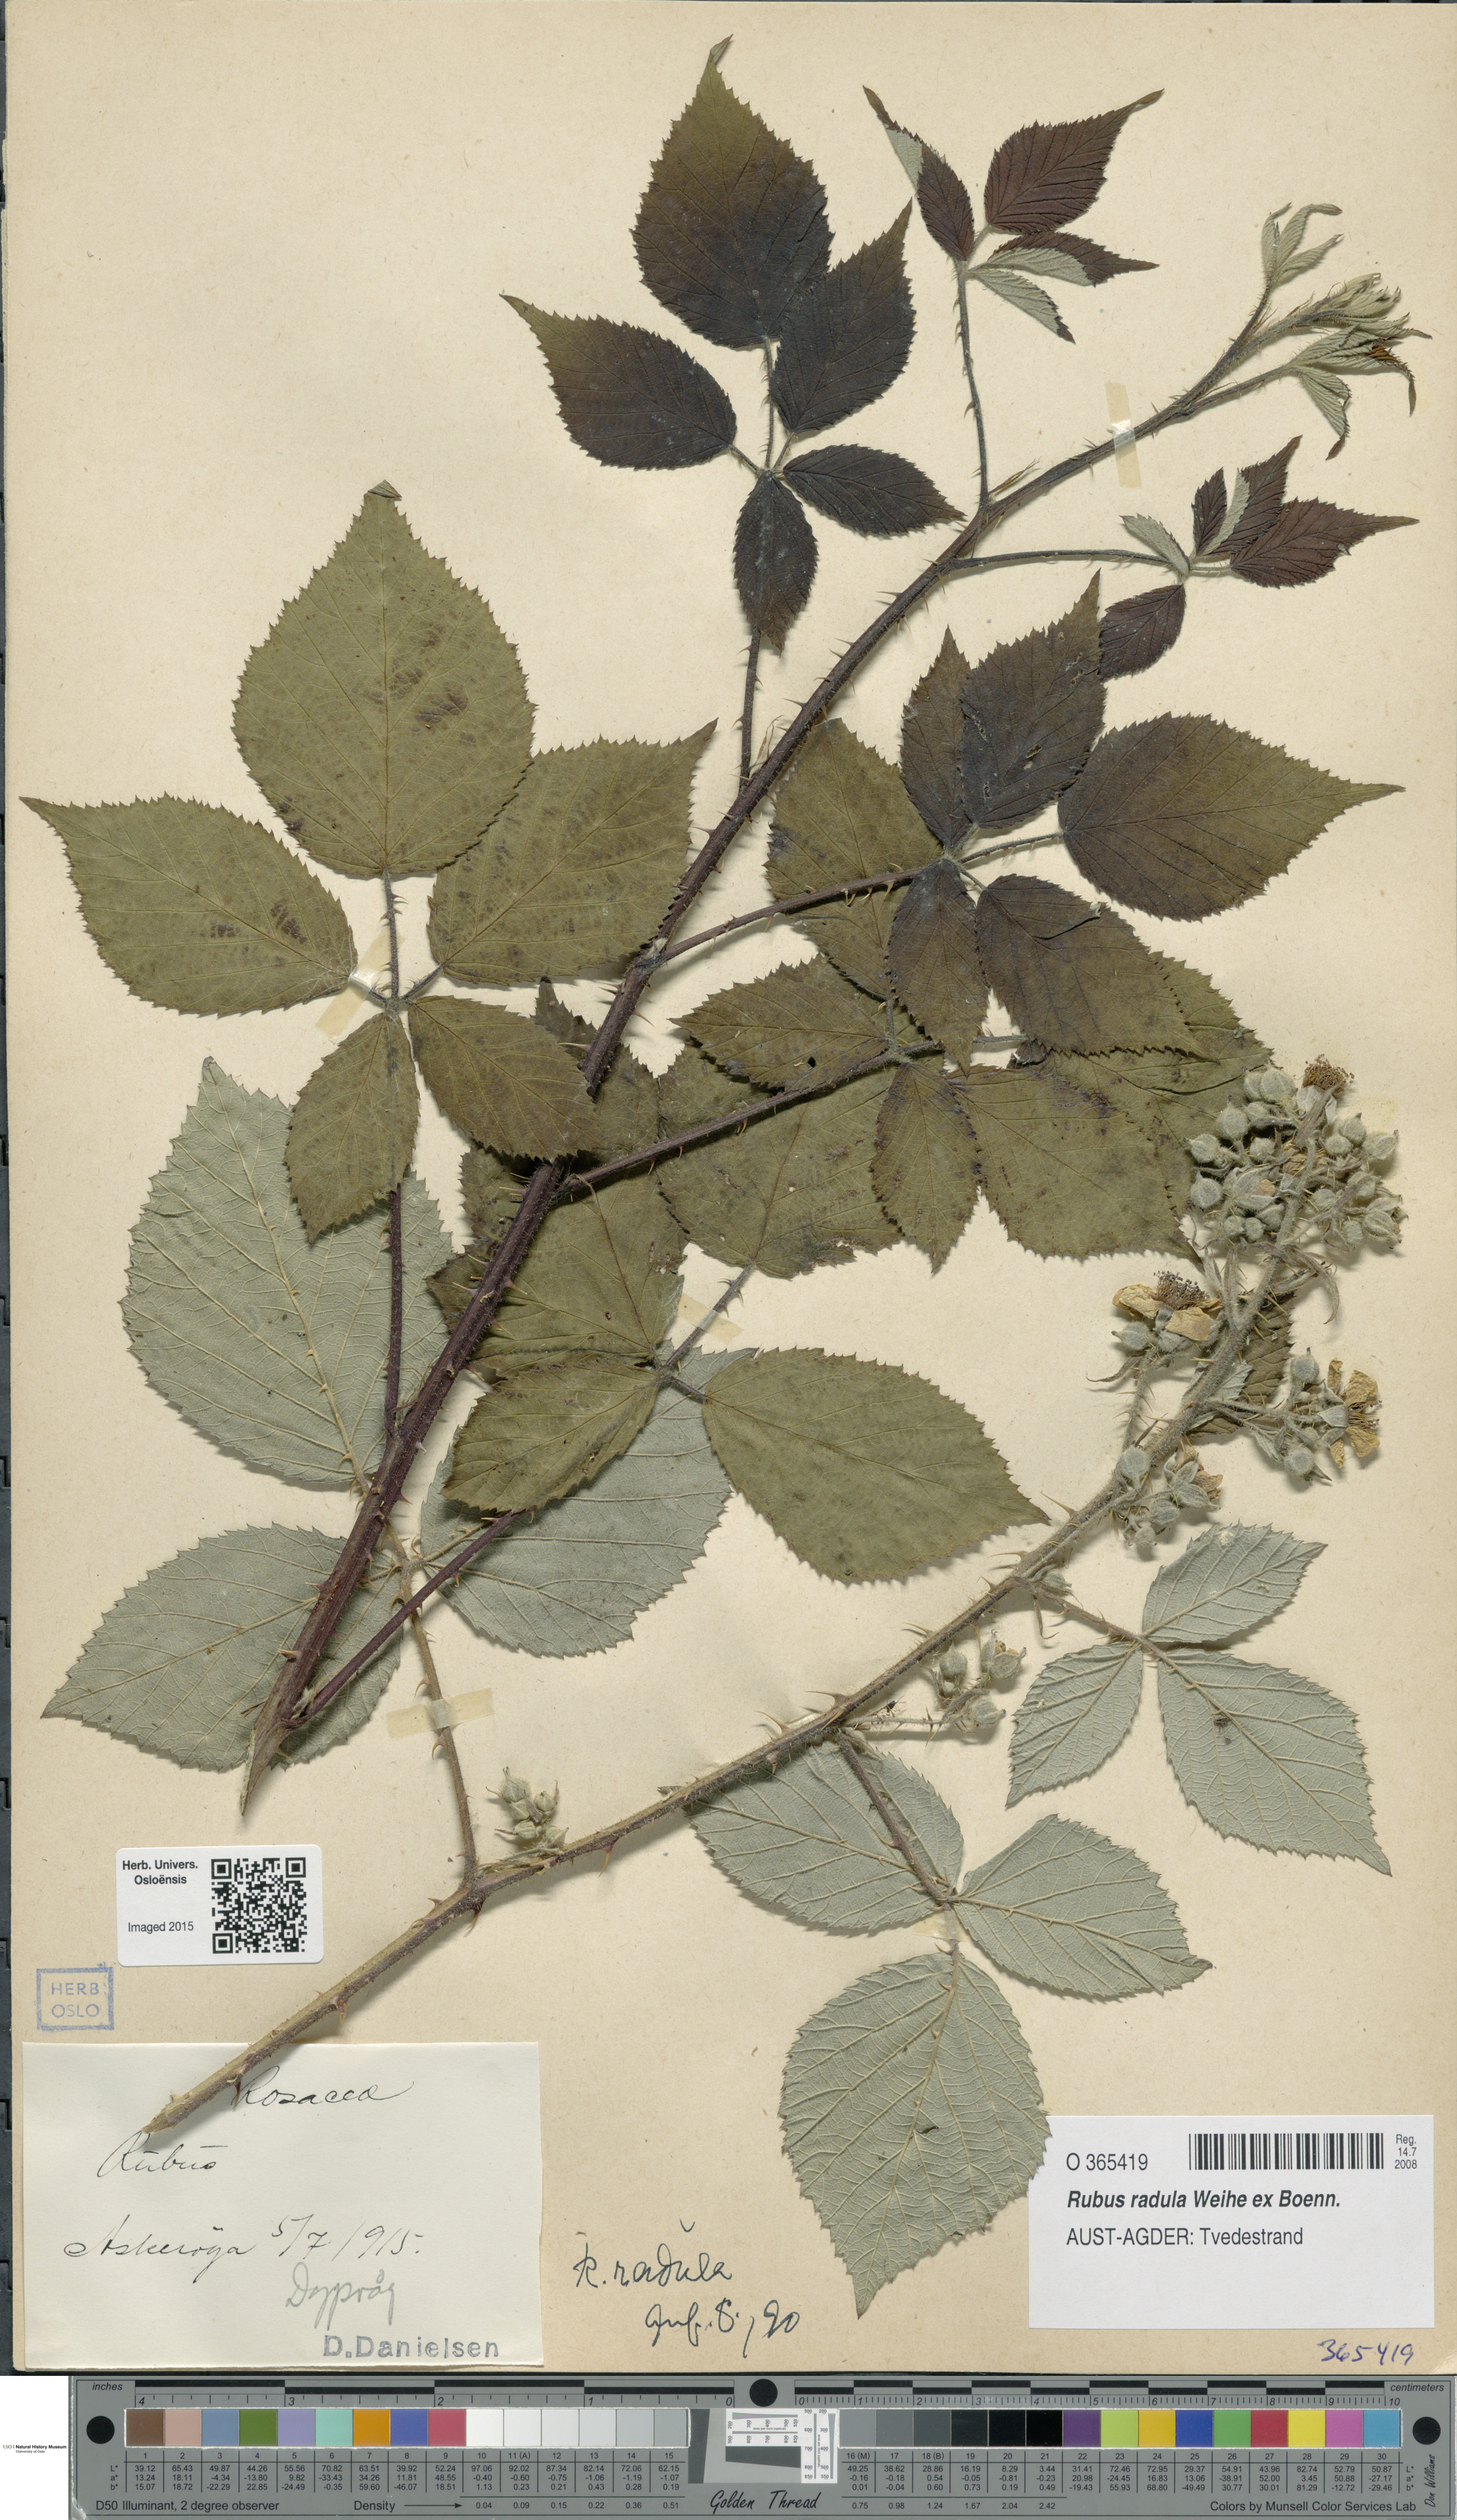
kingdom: Plantae
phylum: Tracheophyta
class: Magnoliopsida
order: Rosales
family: Rosaceae
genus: Rubus
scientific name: Rubus radula
